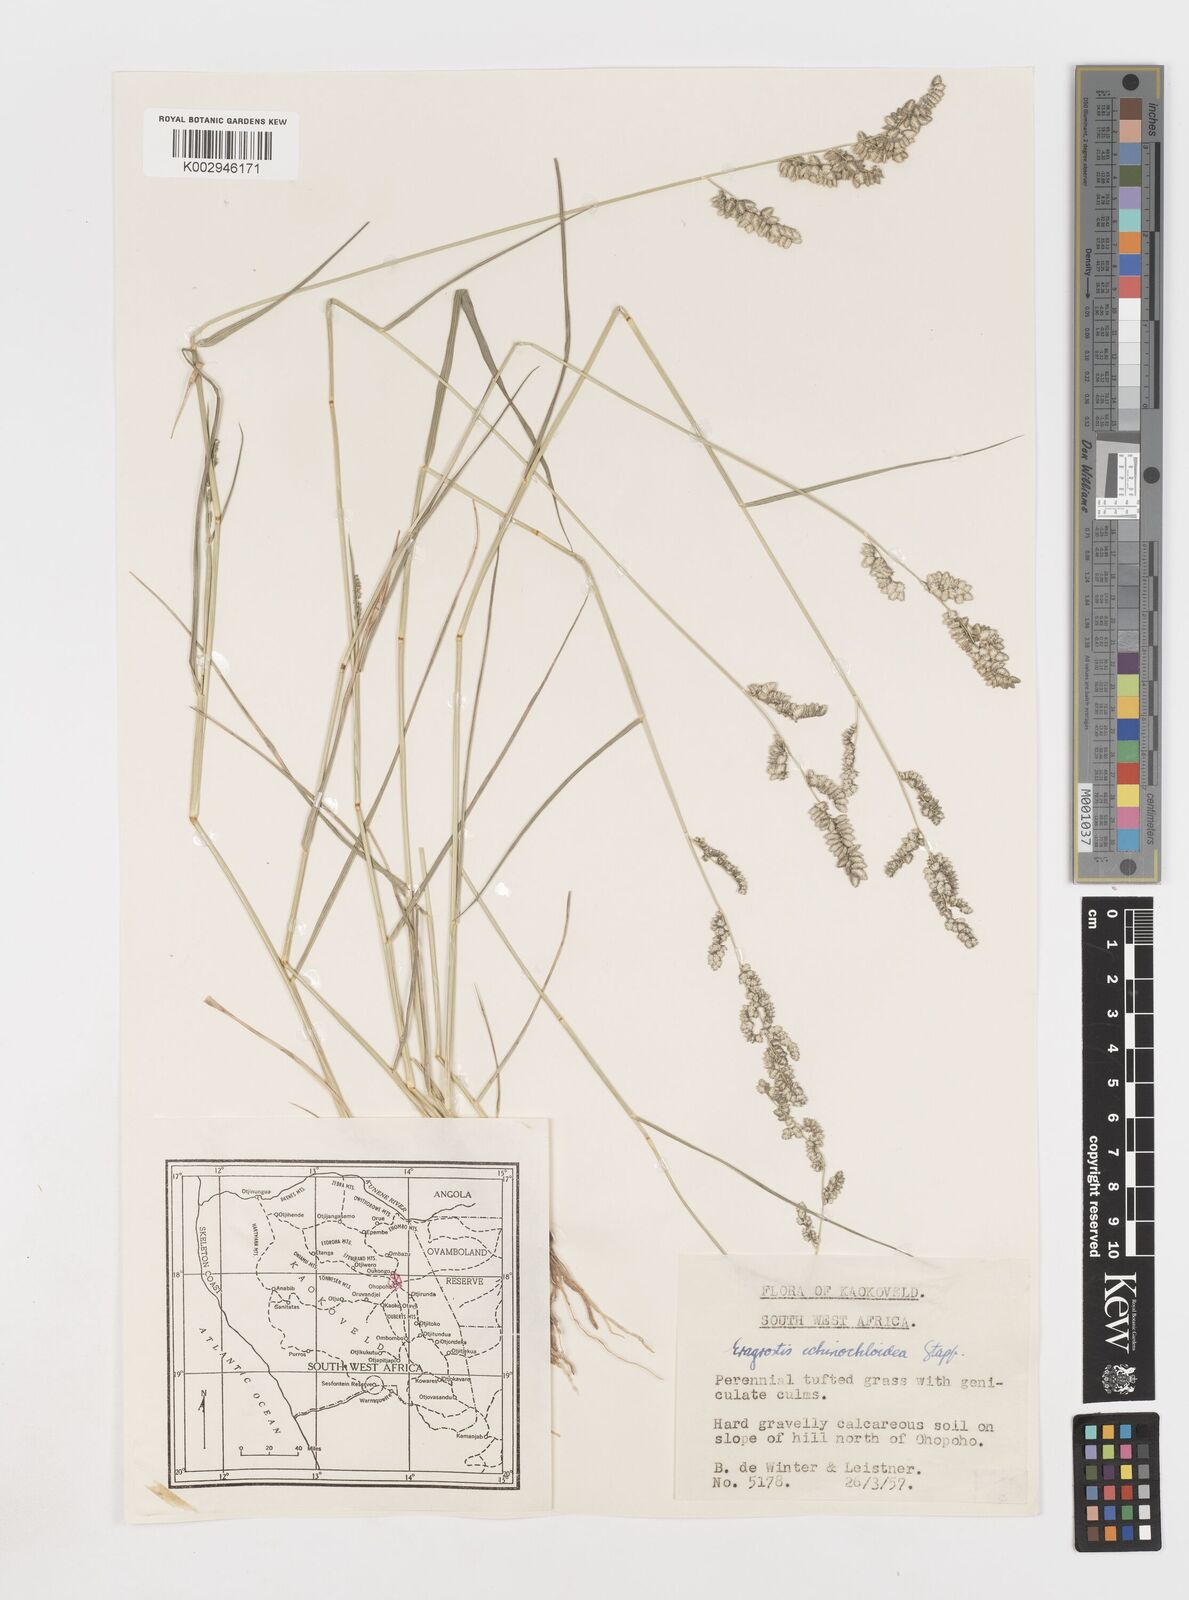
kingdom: Plantae
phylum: Tracheophyta
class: Liliopsida
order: Poales
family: Poaceae
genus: Eragrostis
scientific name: Eragrostis echinochloidea
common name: African lovegrass
